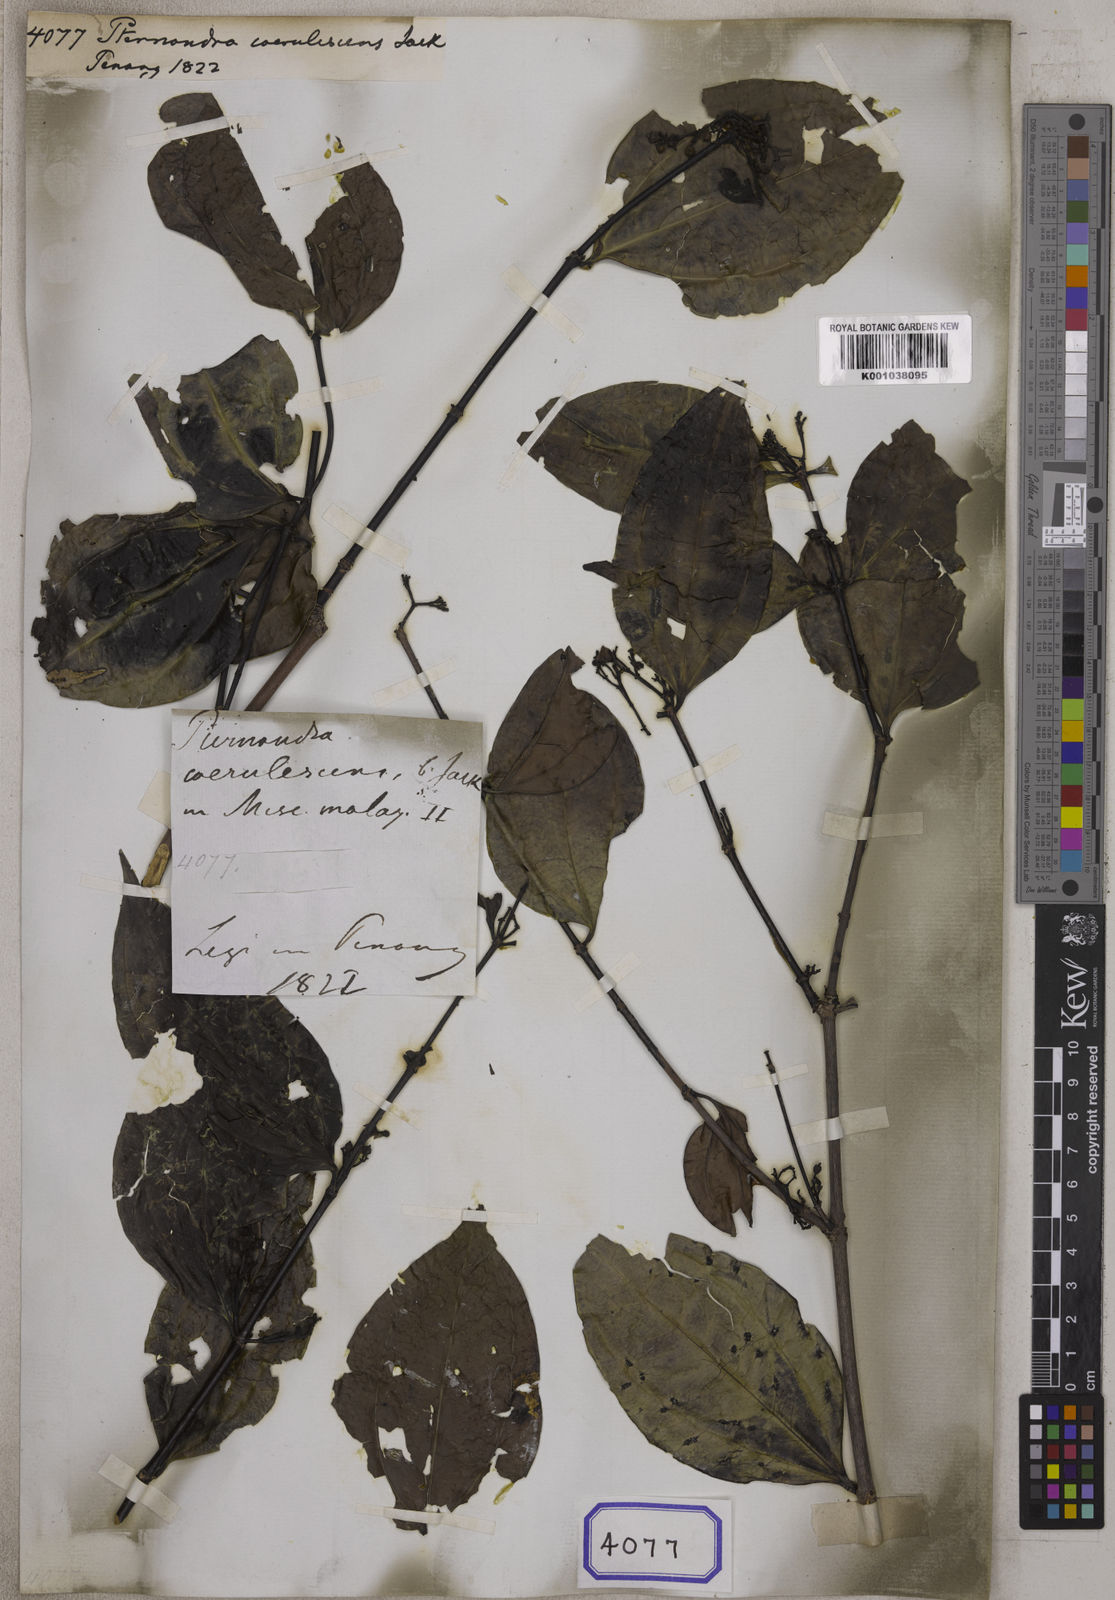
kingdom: Plantae
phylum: Tracheophyta
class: Magnoliopsida
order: Myrtales
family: Melastomataceae
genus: Pternandra
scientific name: Pternandra caerulescens
